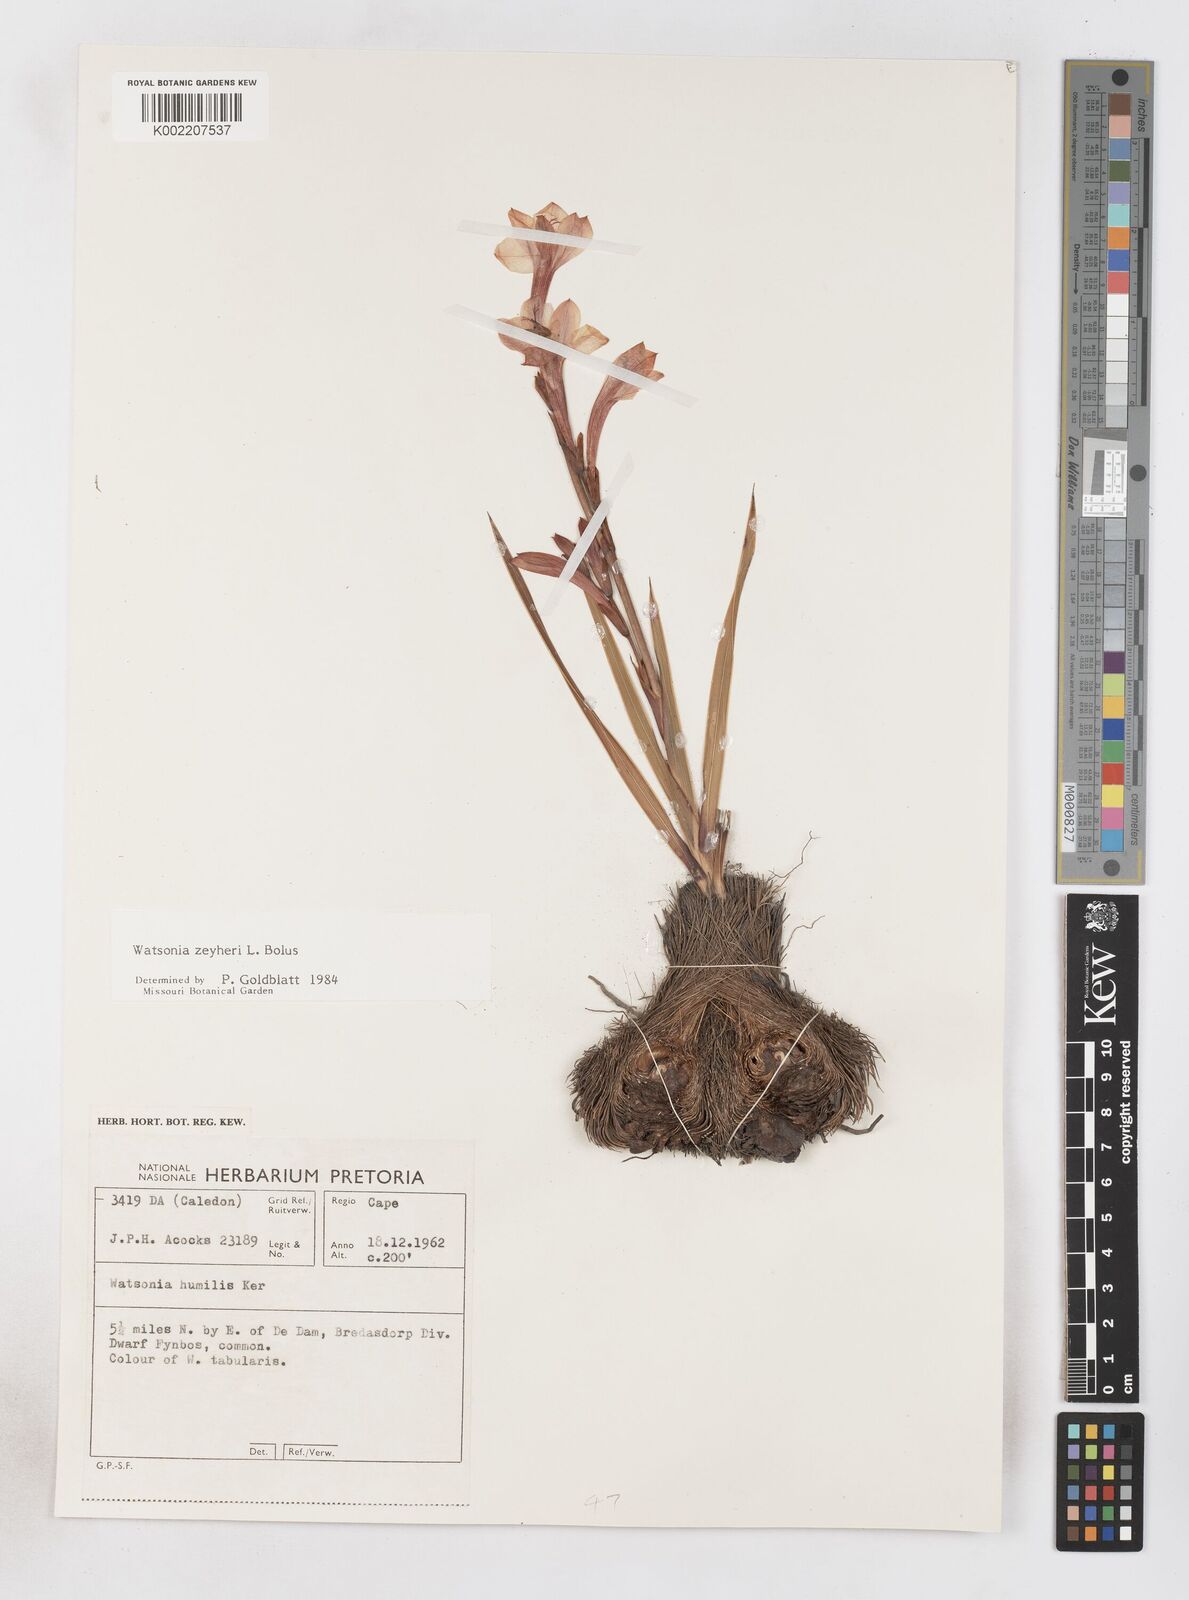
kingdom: Plantae
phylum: Tracheophyta
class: Liliopsida
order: Asparagales
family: Iridaceae
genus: Watsonia
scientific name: Watsonia zeyheri
